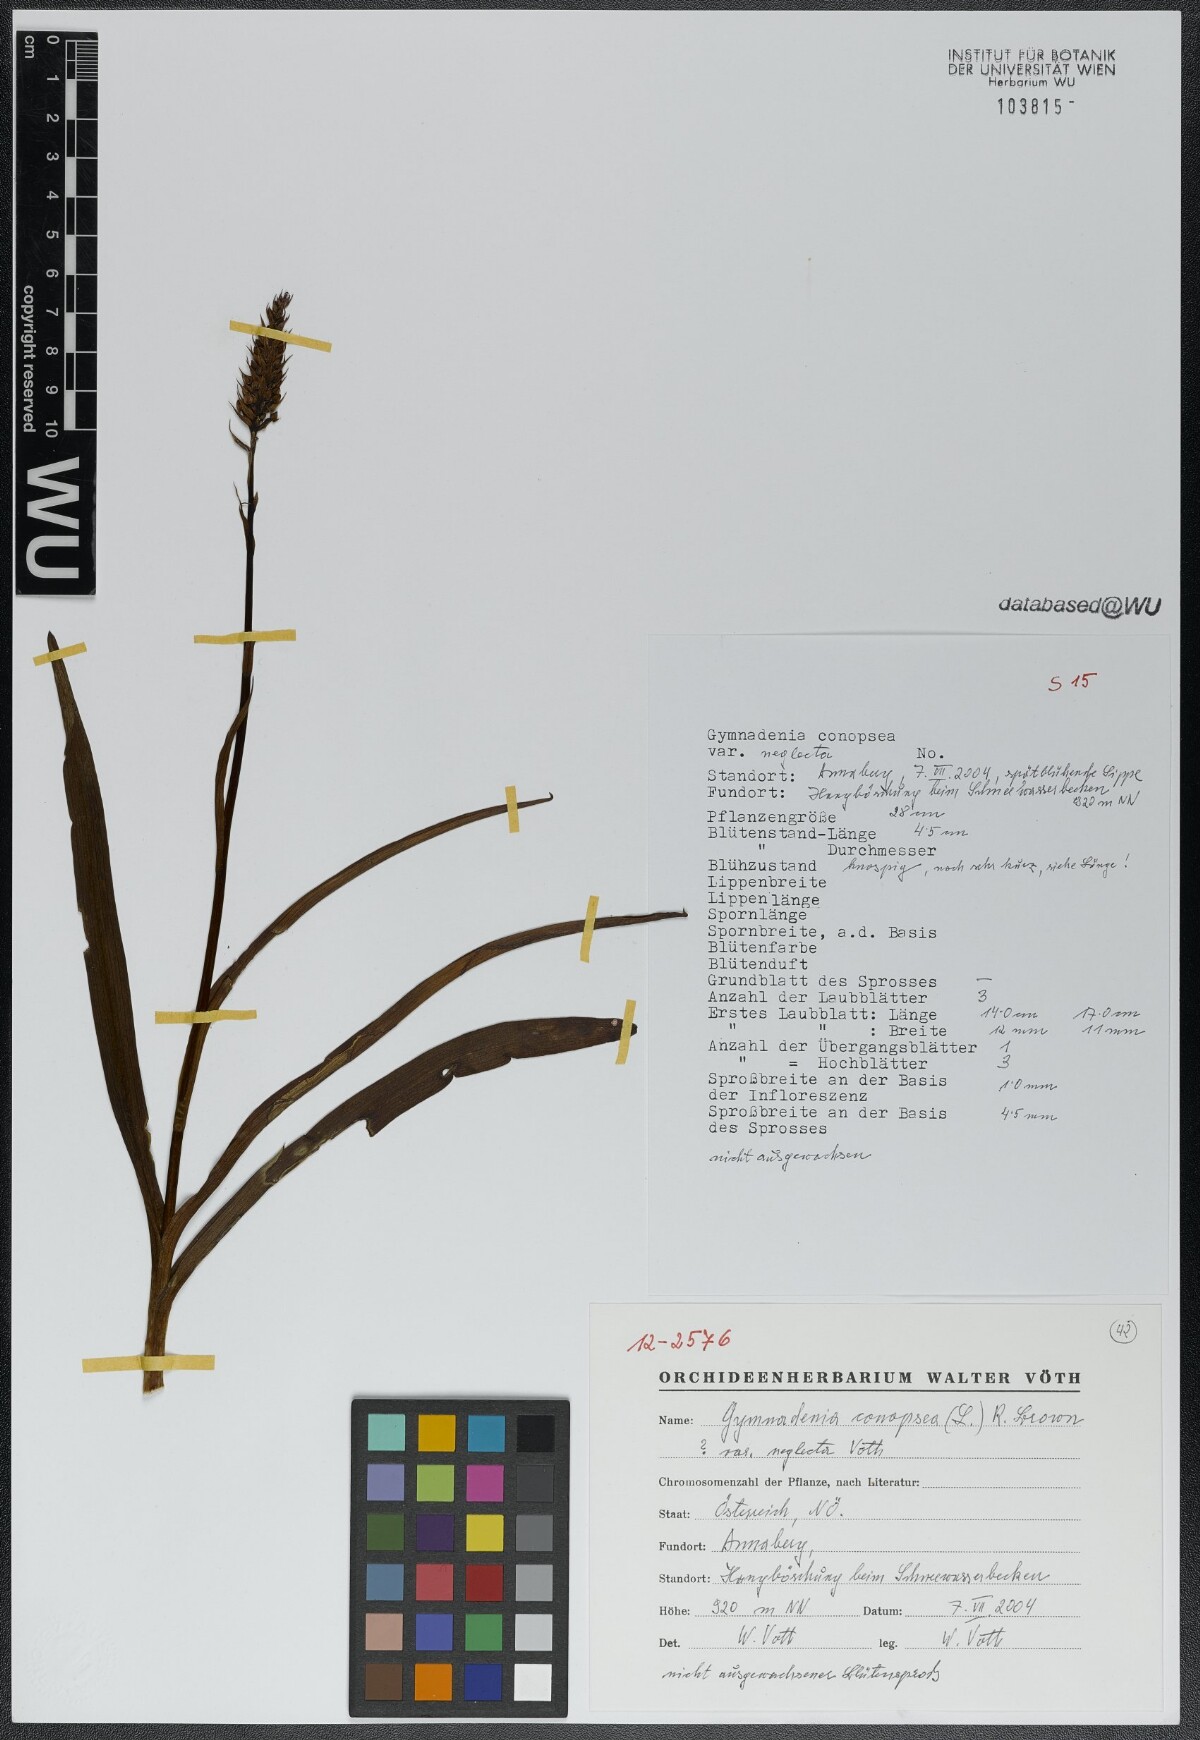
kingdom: Plantae
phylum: Tracheophyta
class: Liliopsida
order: Asparagales
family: Orchidaceae
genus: Gymnadenia
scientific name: Gymnadenia conopsea
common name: Fragrant orchid
